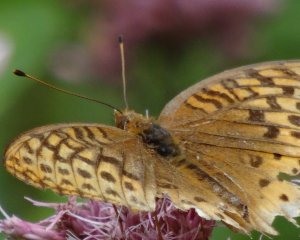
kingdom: Animalia
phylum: Arthropoda
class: Insecta
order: Lepidoptera
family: Nymphalidae
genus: Speyeria
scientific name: Speyeria cybele
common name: Great Spangled Fritillary
